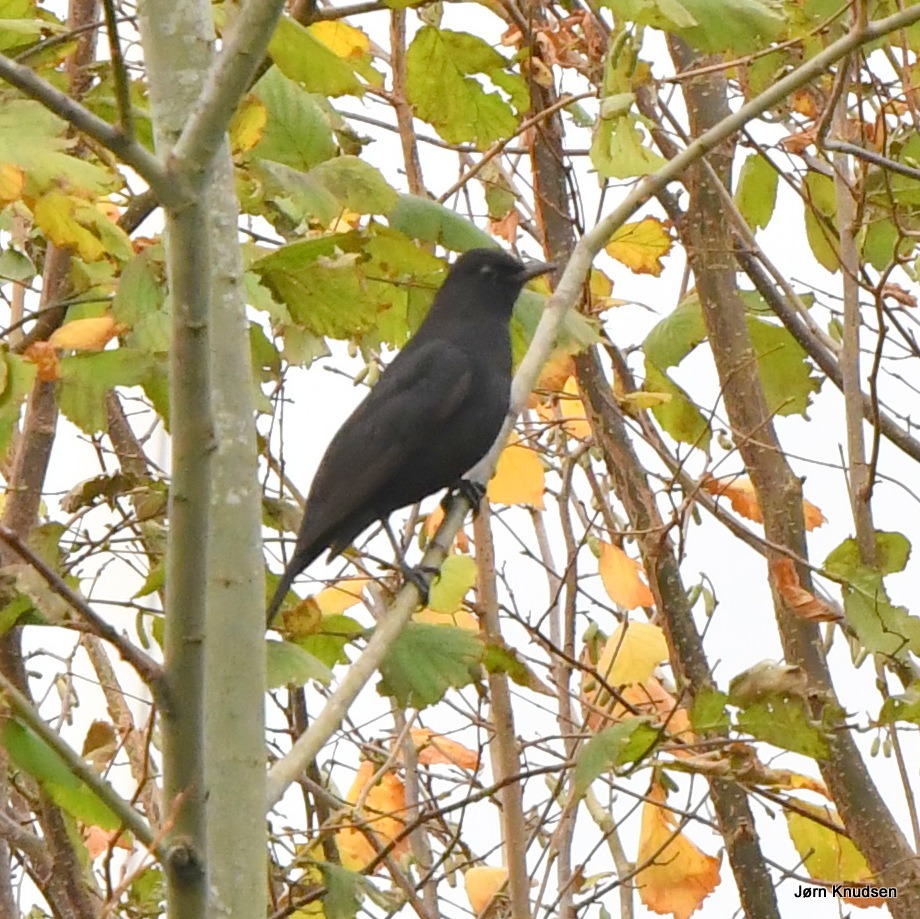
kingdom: Animalia
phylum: Chordata
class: Aves
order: Passeriformes
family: Turdidae
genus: Turdus
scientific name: Turdus merula
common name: Solsort
